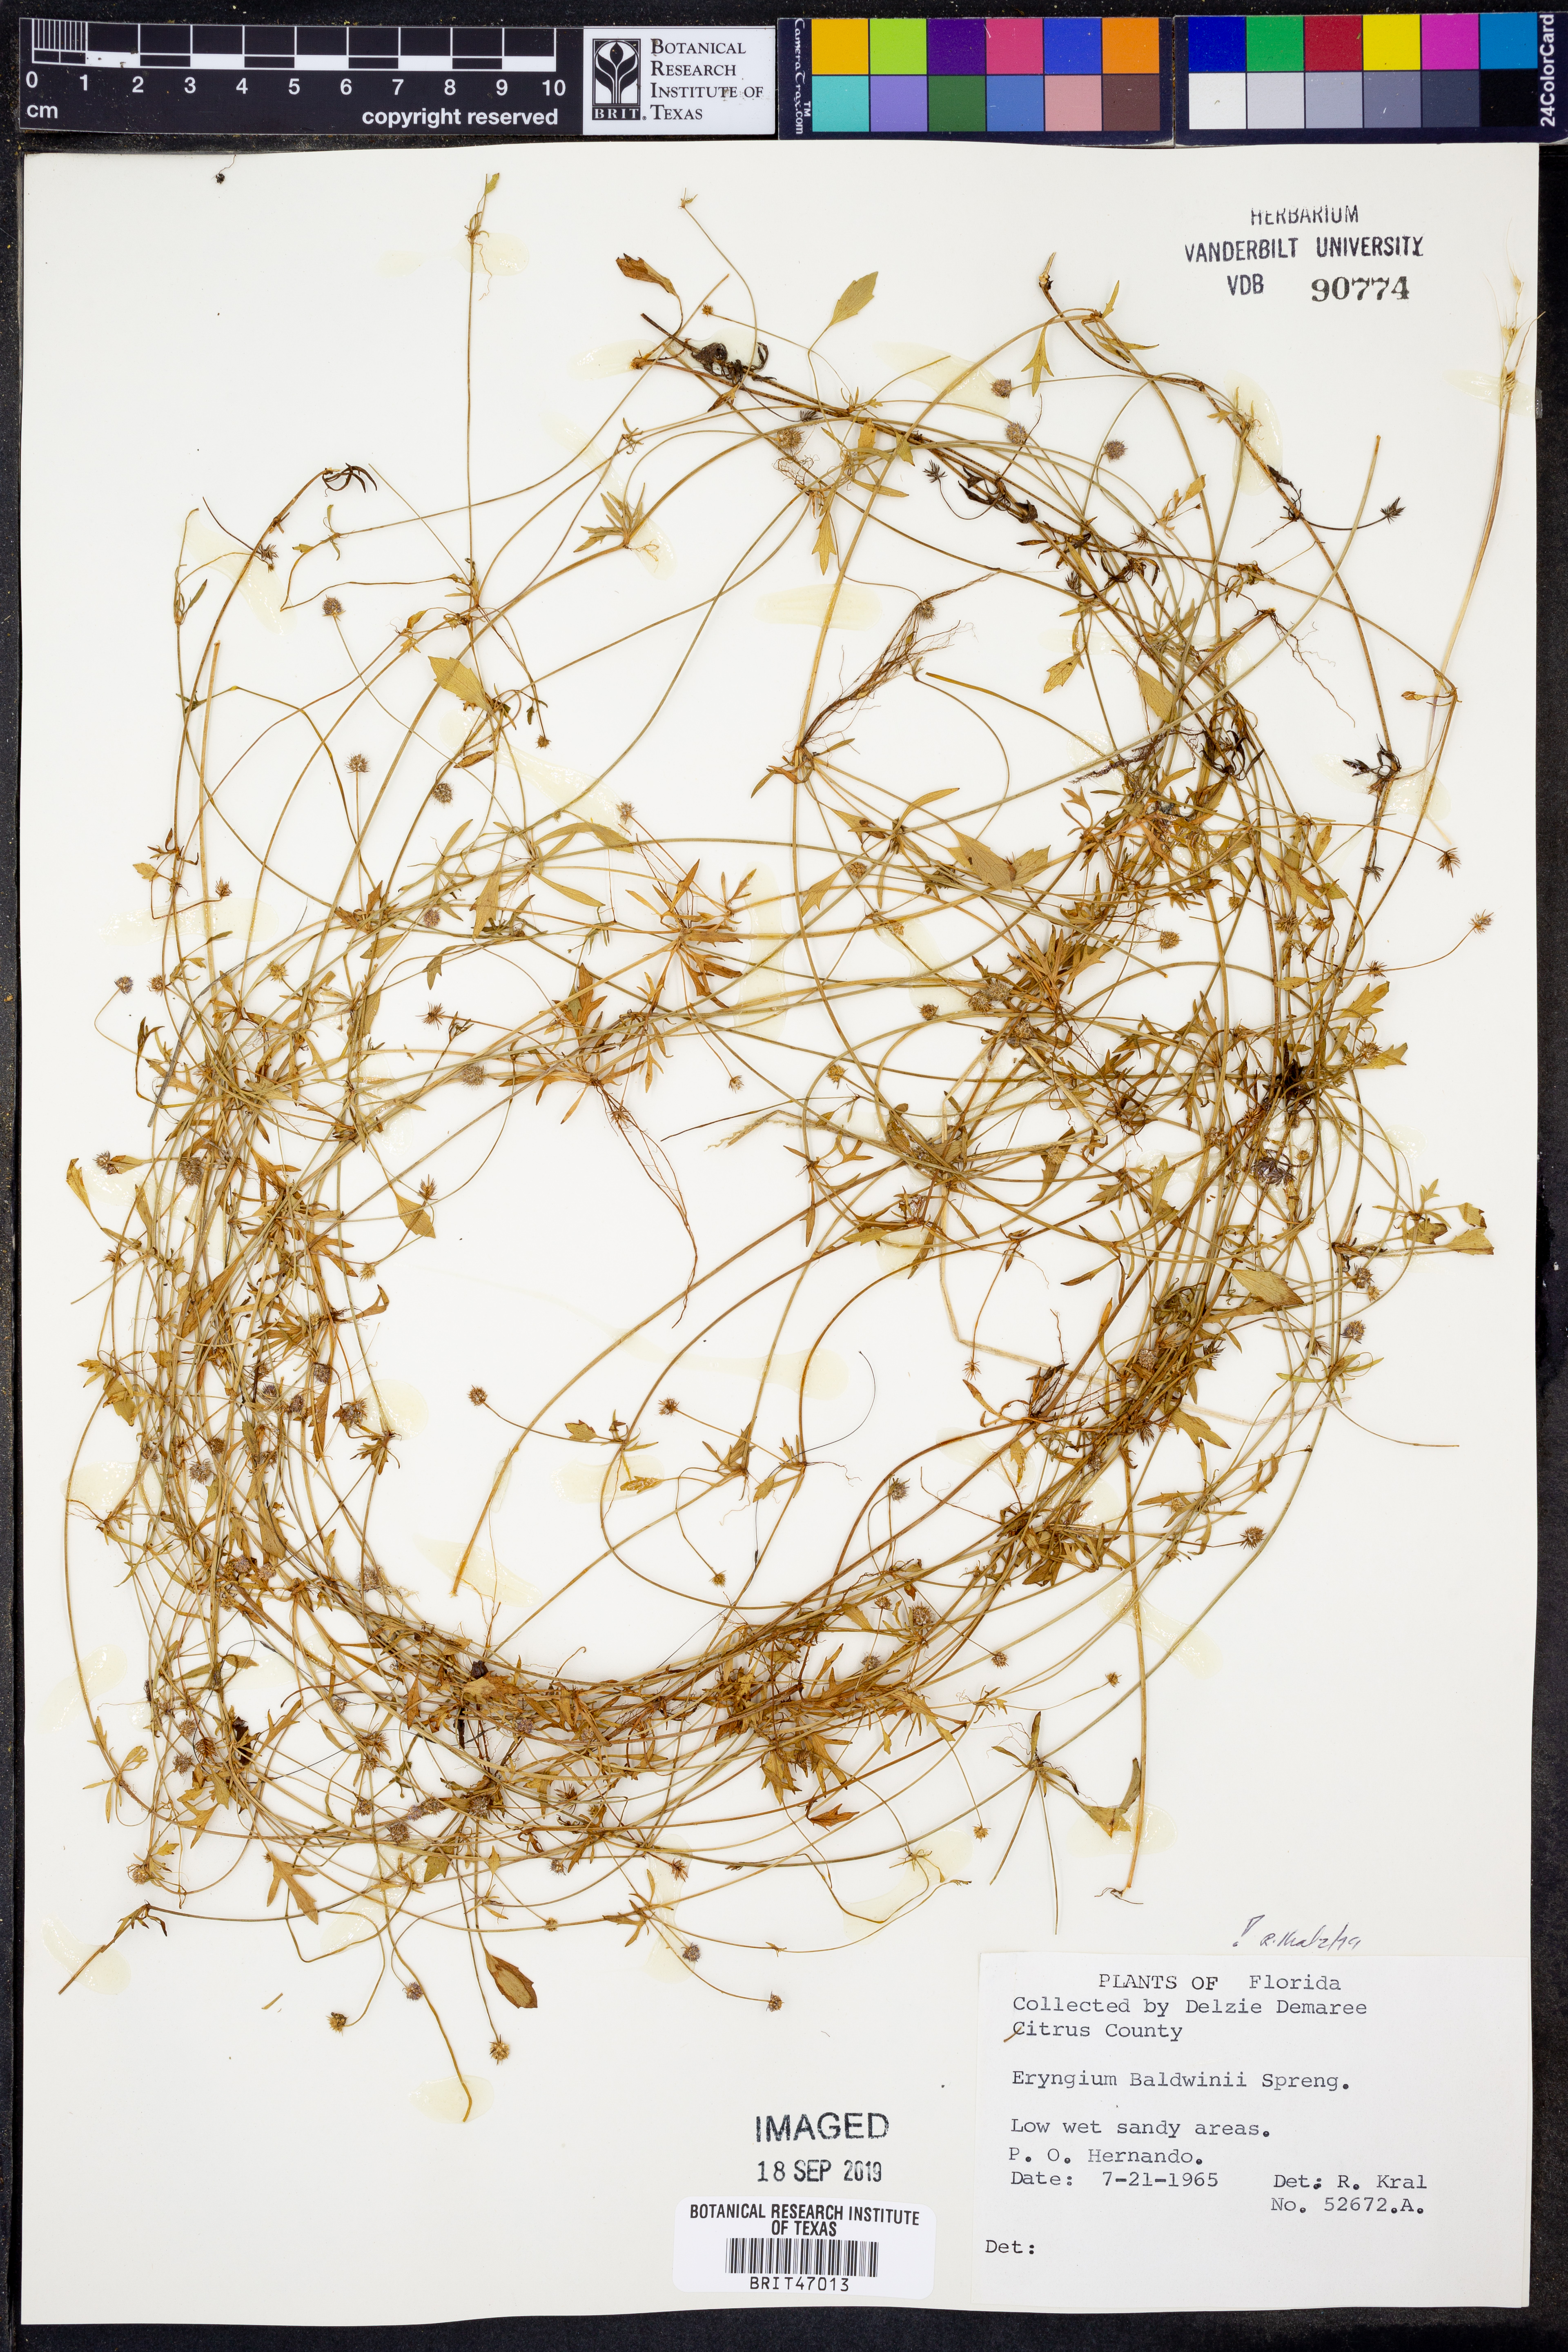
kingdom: Plantae
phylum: Tracheophyta
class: Magnoliopsida
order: Apiales
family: Apiaceae
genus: Eryngium
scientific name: Eryngium baldwinii
